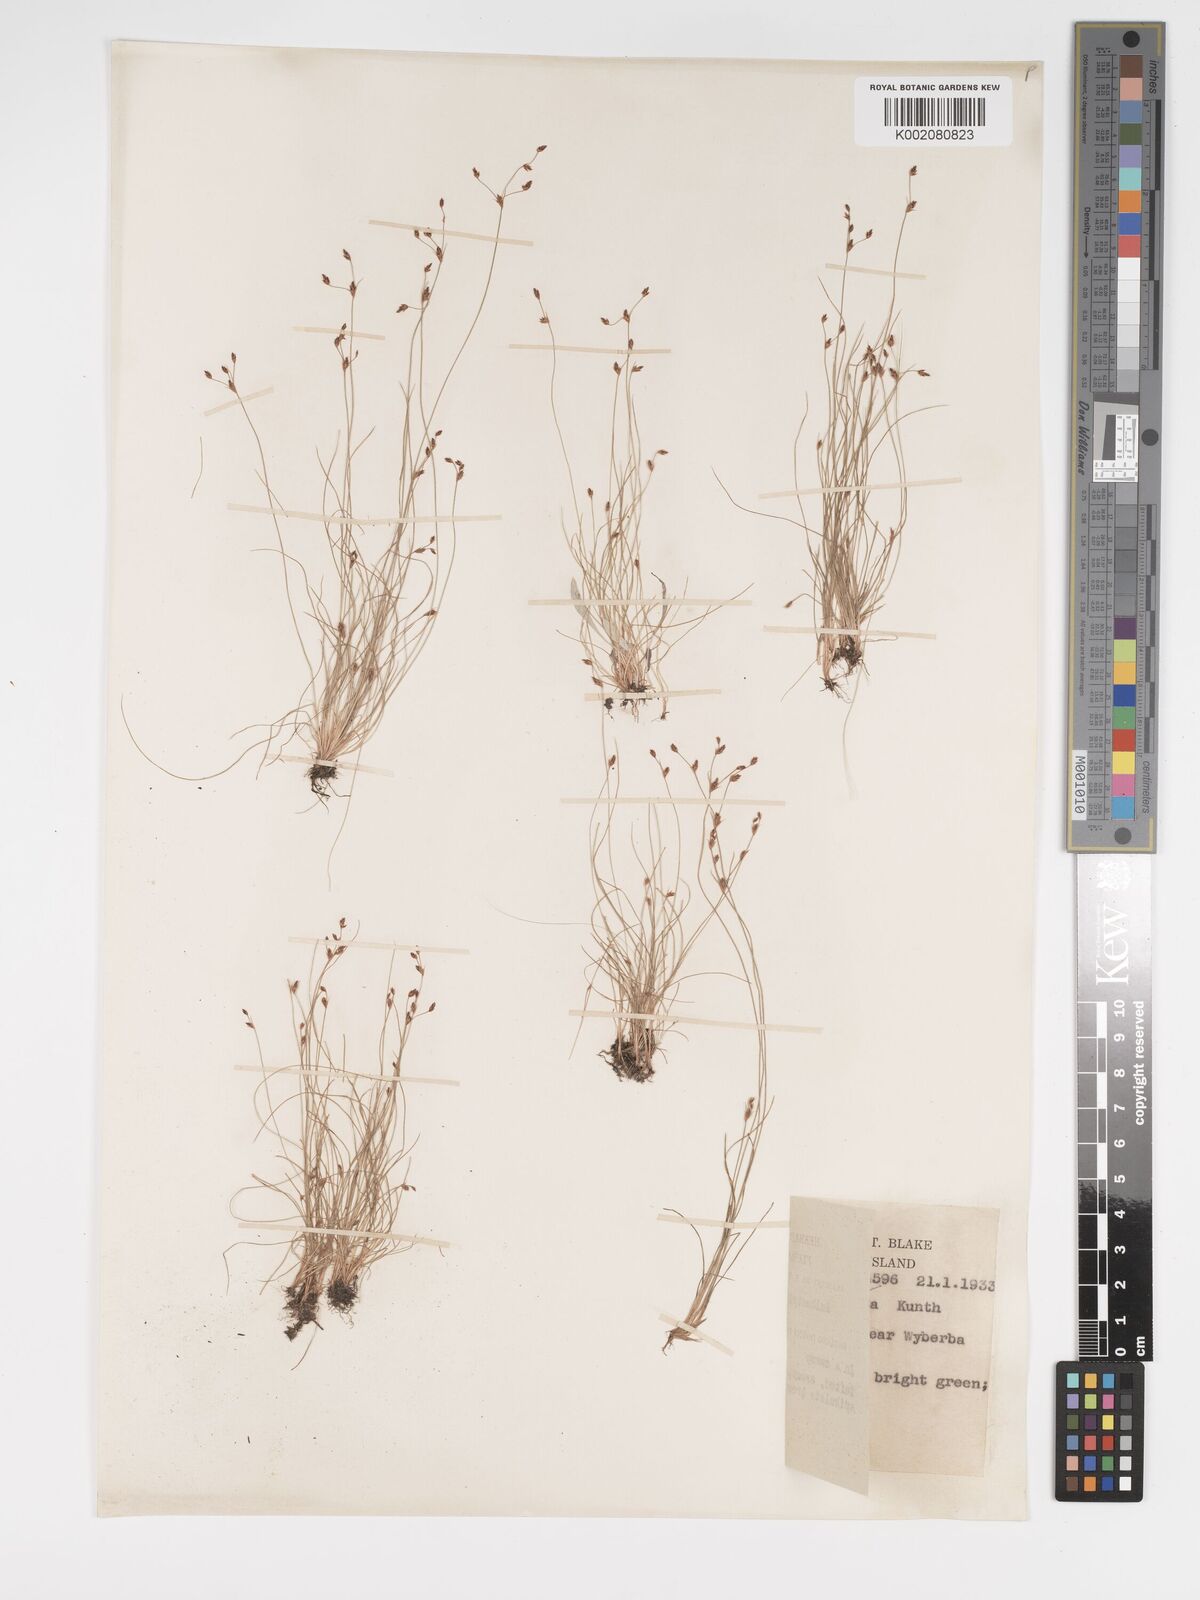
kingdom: Plantae
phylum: Tracheophyta
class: Liliopsida
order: Poales
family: Cyperaceae
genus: Bulbostylis
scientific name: Bulbostylis capillaris
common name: Densetuft hairsedge
